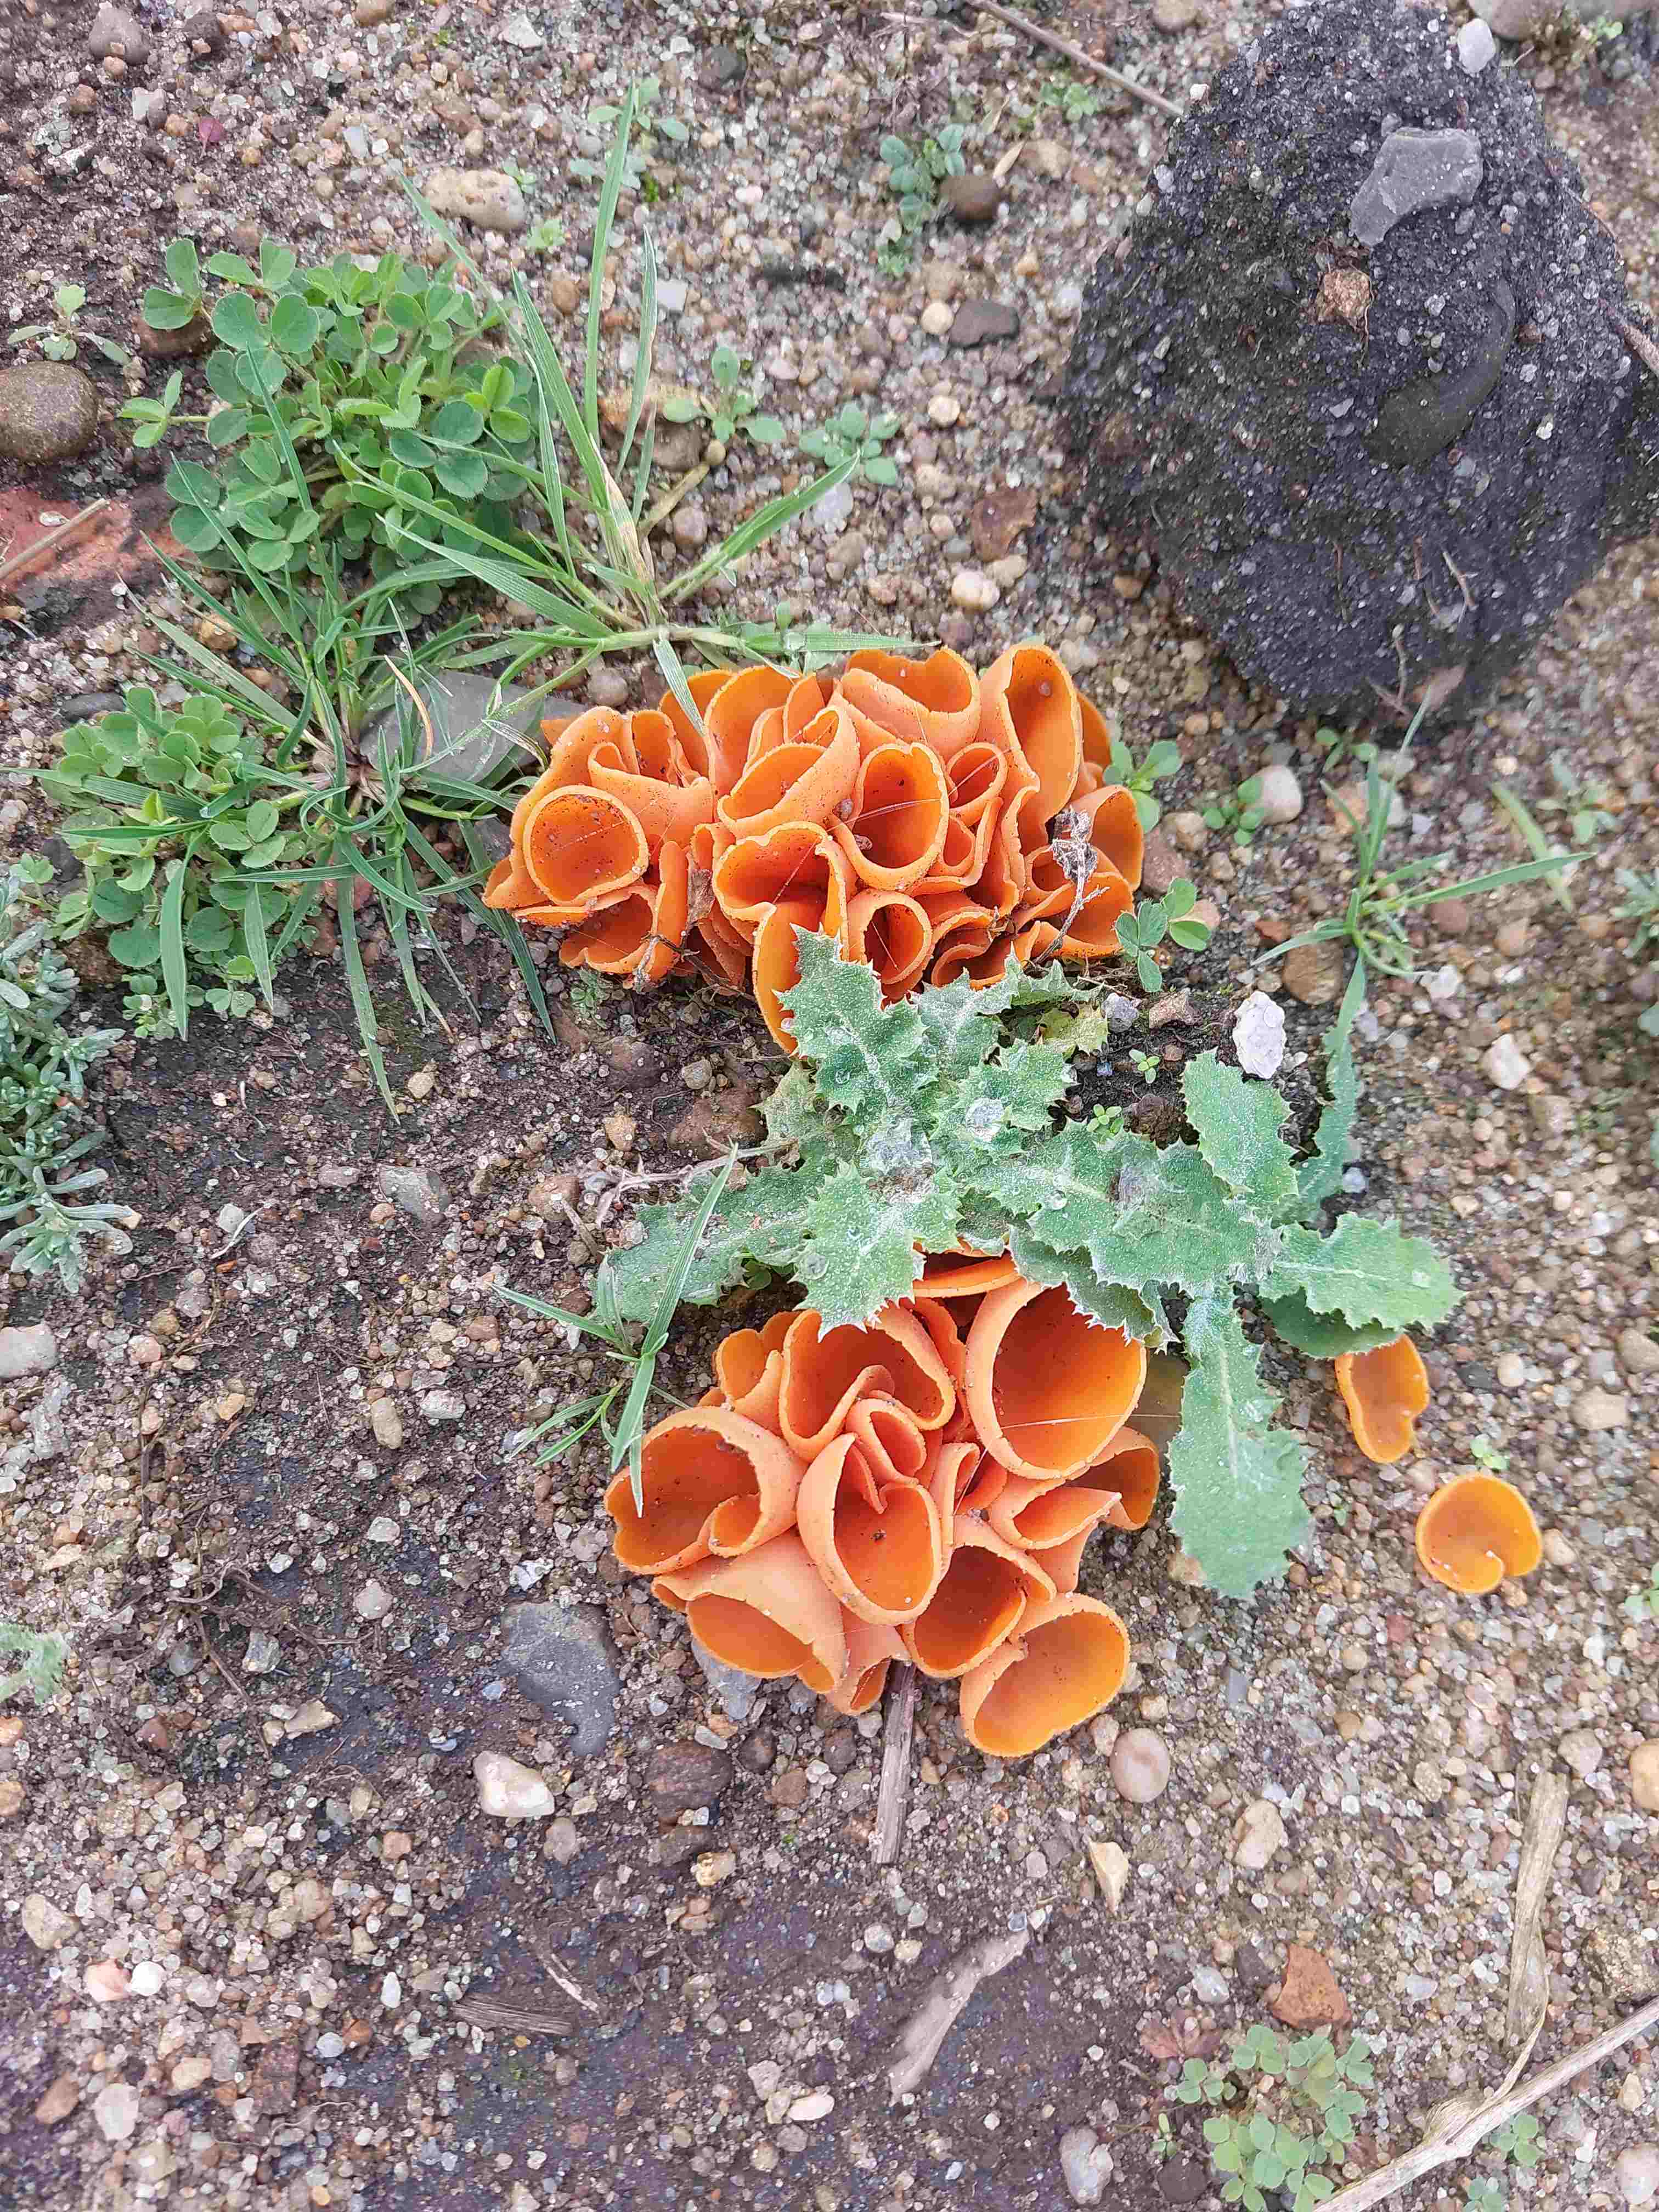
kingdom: Fungi
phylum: Ascomycota
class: Pezizomycetes
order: Pezizales
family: Pyronemataceae
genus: Aleuria
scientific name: Aleuria aurantia
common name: almindelig orangebæger
